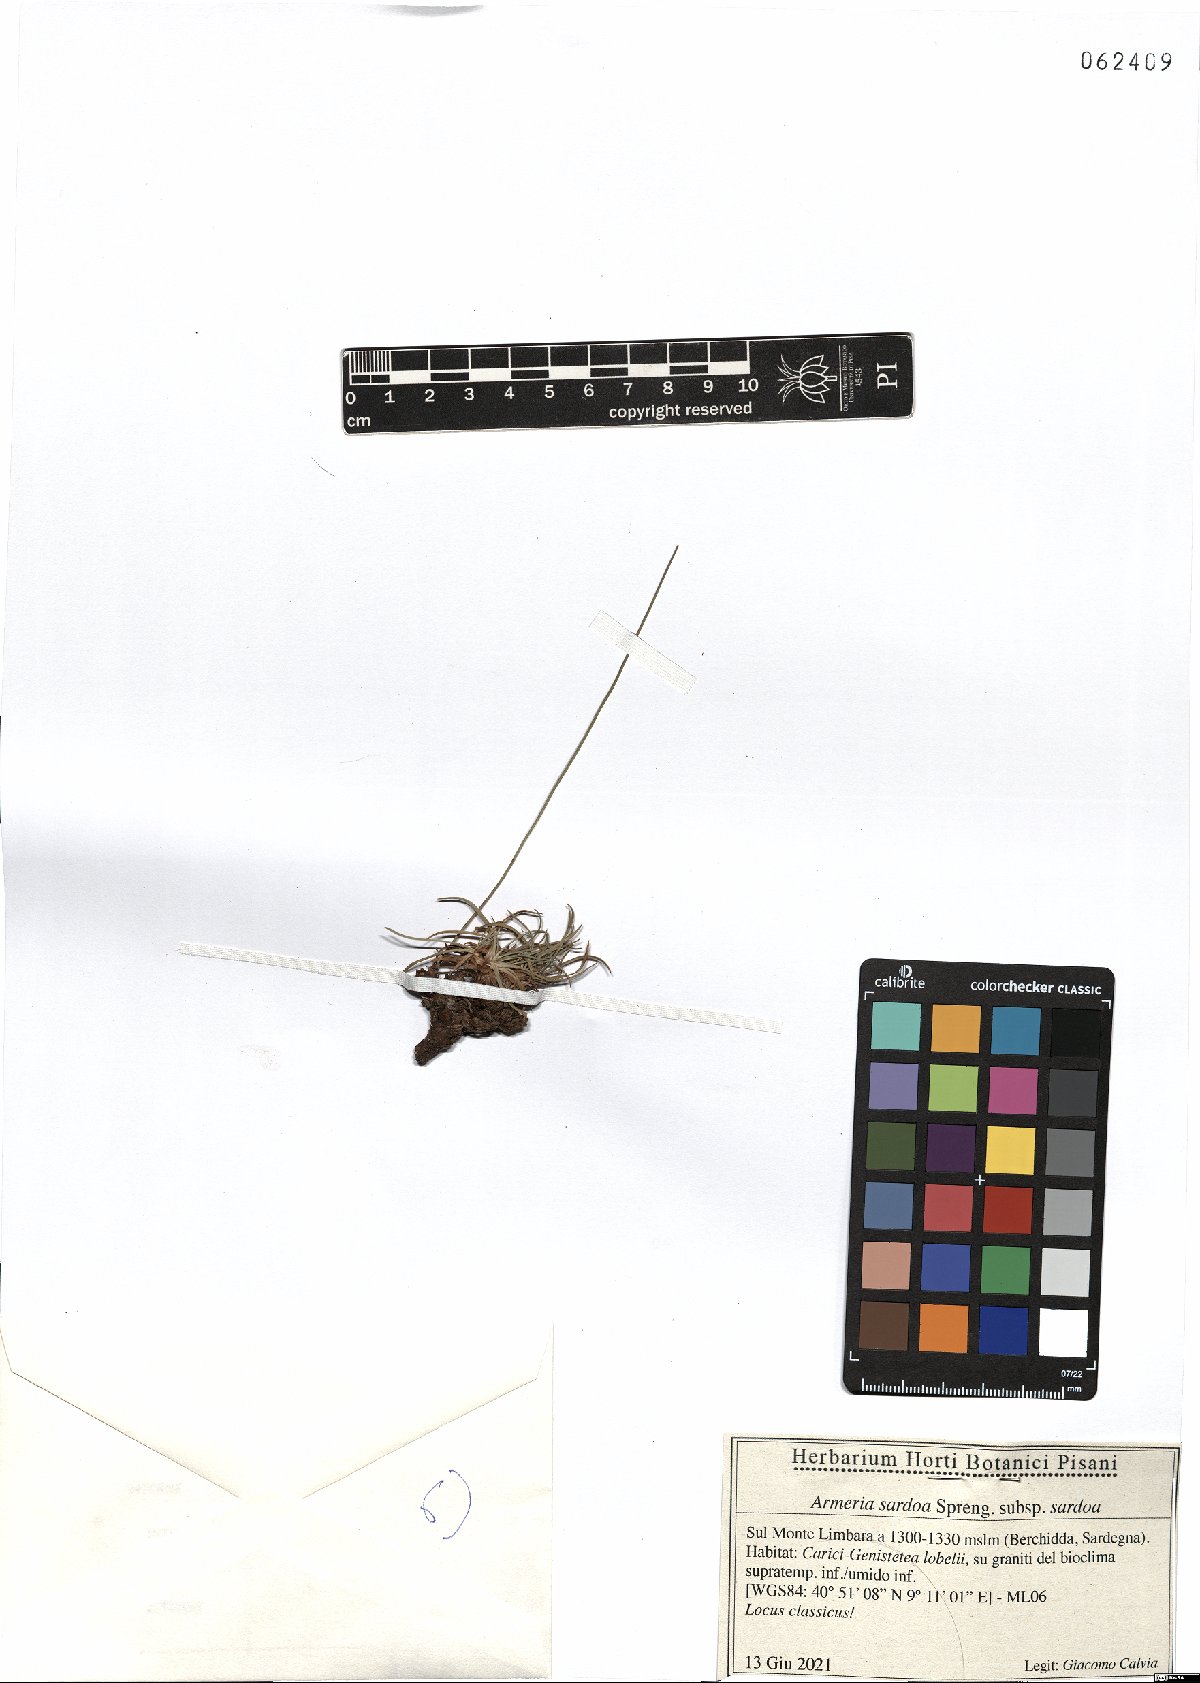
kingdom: Plantae
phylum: Tracheophyta
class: Magnoliopsida
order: Caryophyllales
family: Plumbaginaceae
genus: Armeria
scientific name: Armeria sardoa
